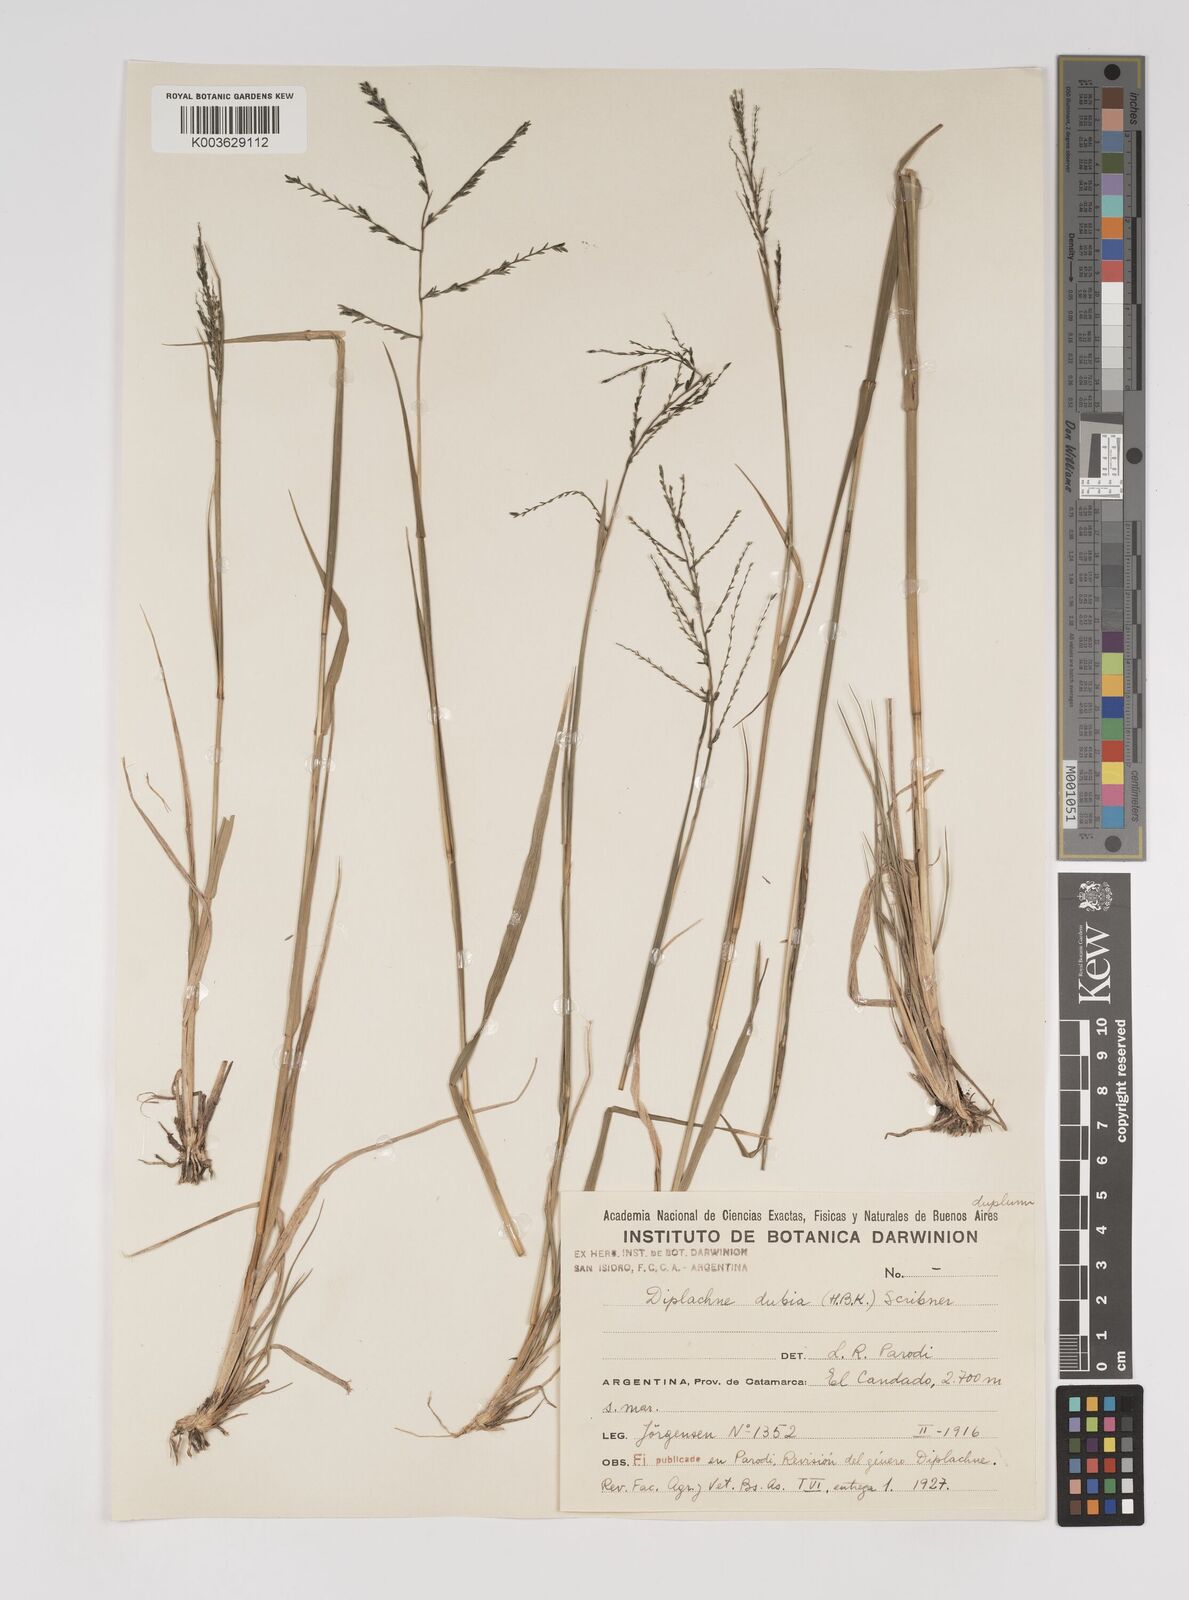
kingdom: Plantae
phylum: Tracheophyta
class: Liliopsida
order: Poales
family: Poaceae
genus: Disakisperma
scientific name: Disakisperma dubium
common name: Green sprangletop
